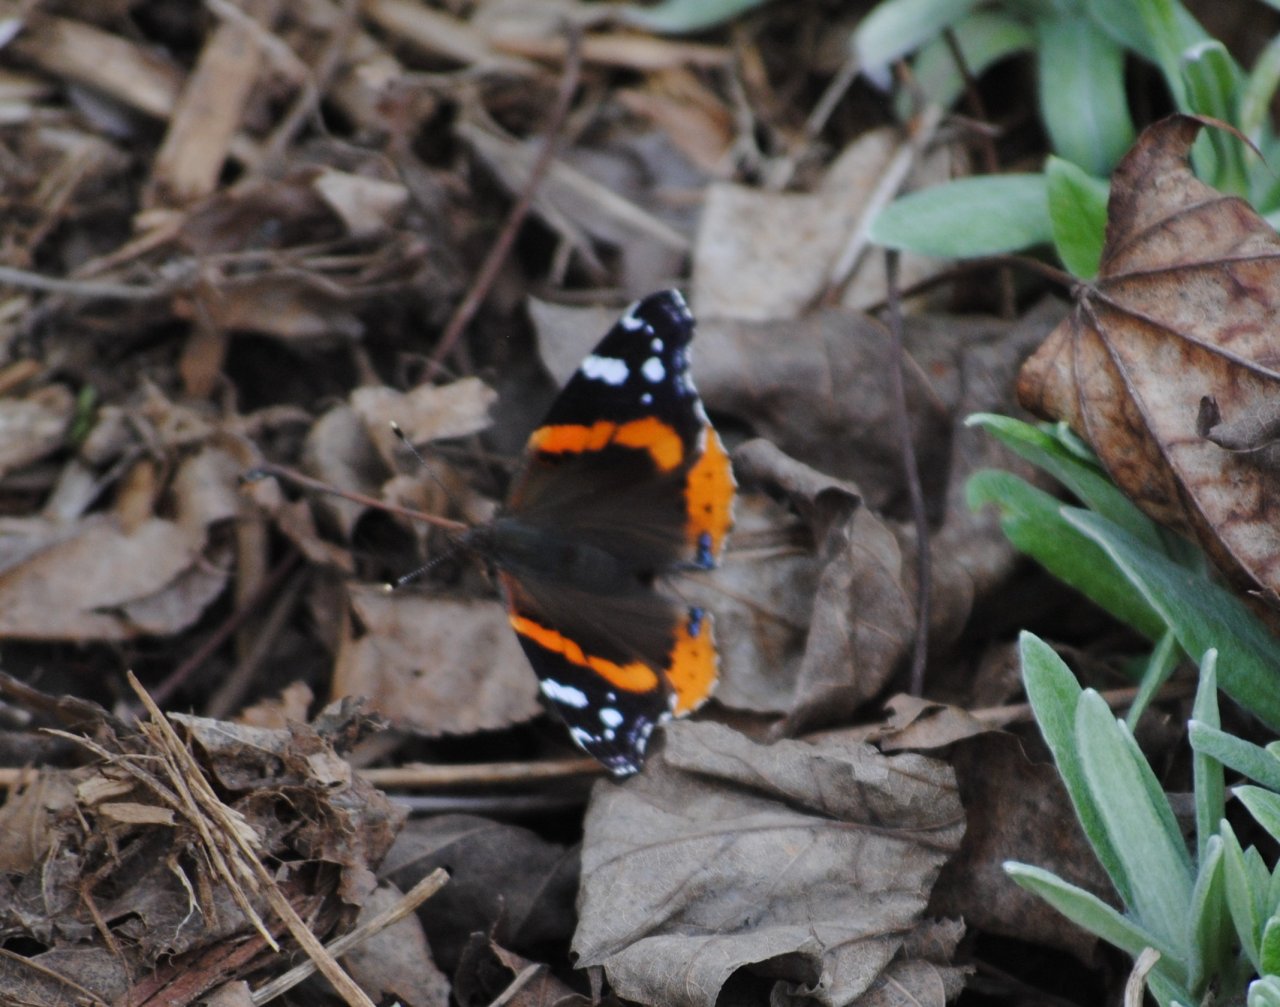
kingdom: Animalia
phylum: Arthropoda
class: Insecta
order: Lepidoptera
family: Nymphalidae
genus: Vanessa
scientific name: Vanessa atalanta
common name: Red Admiral
